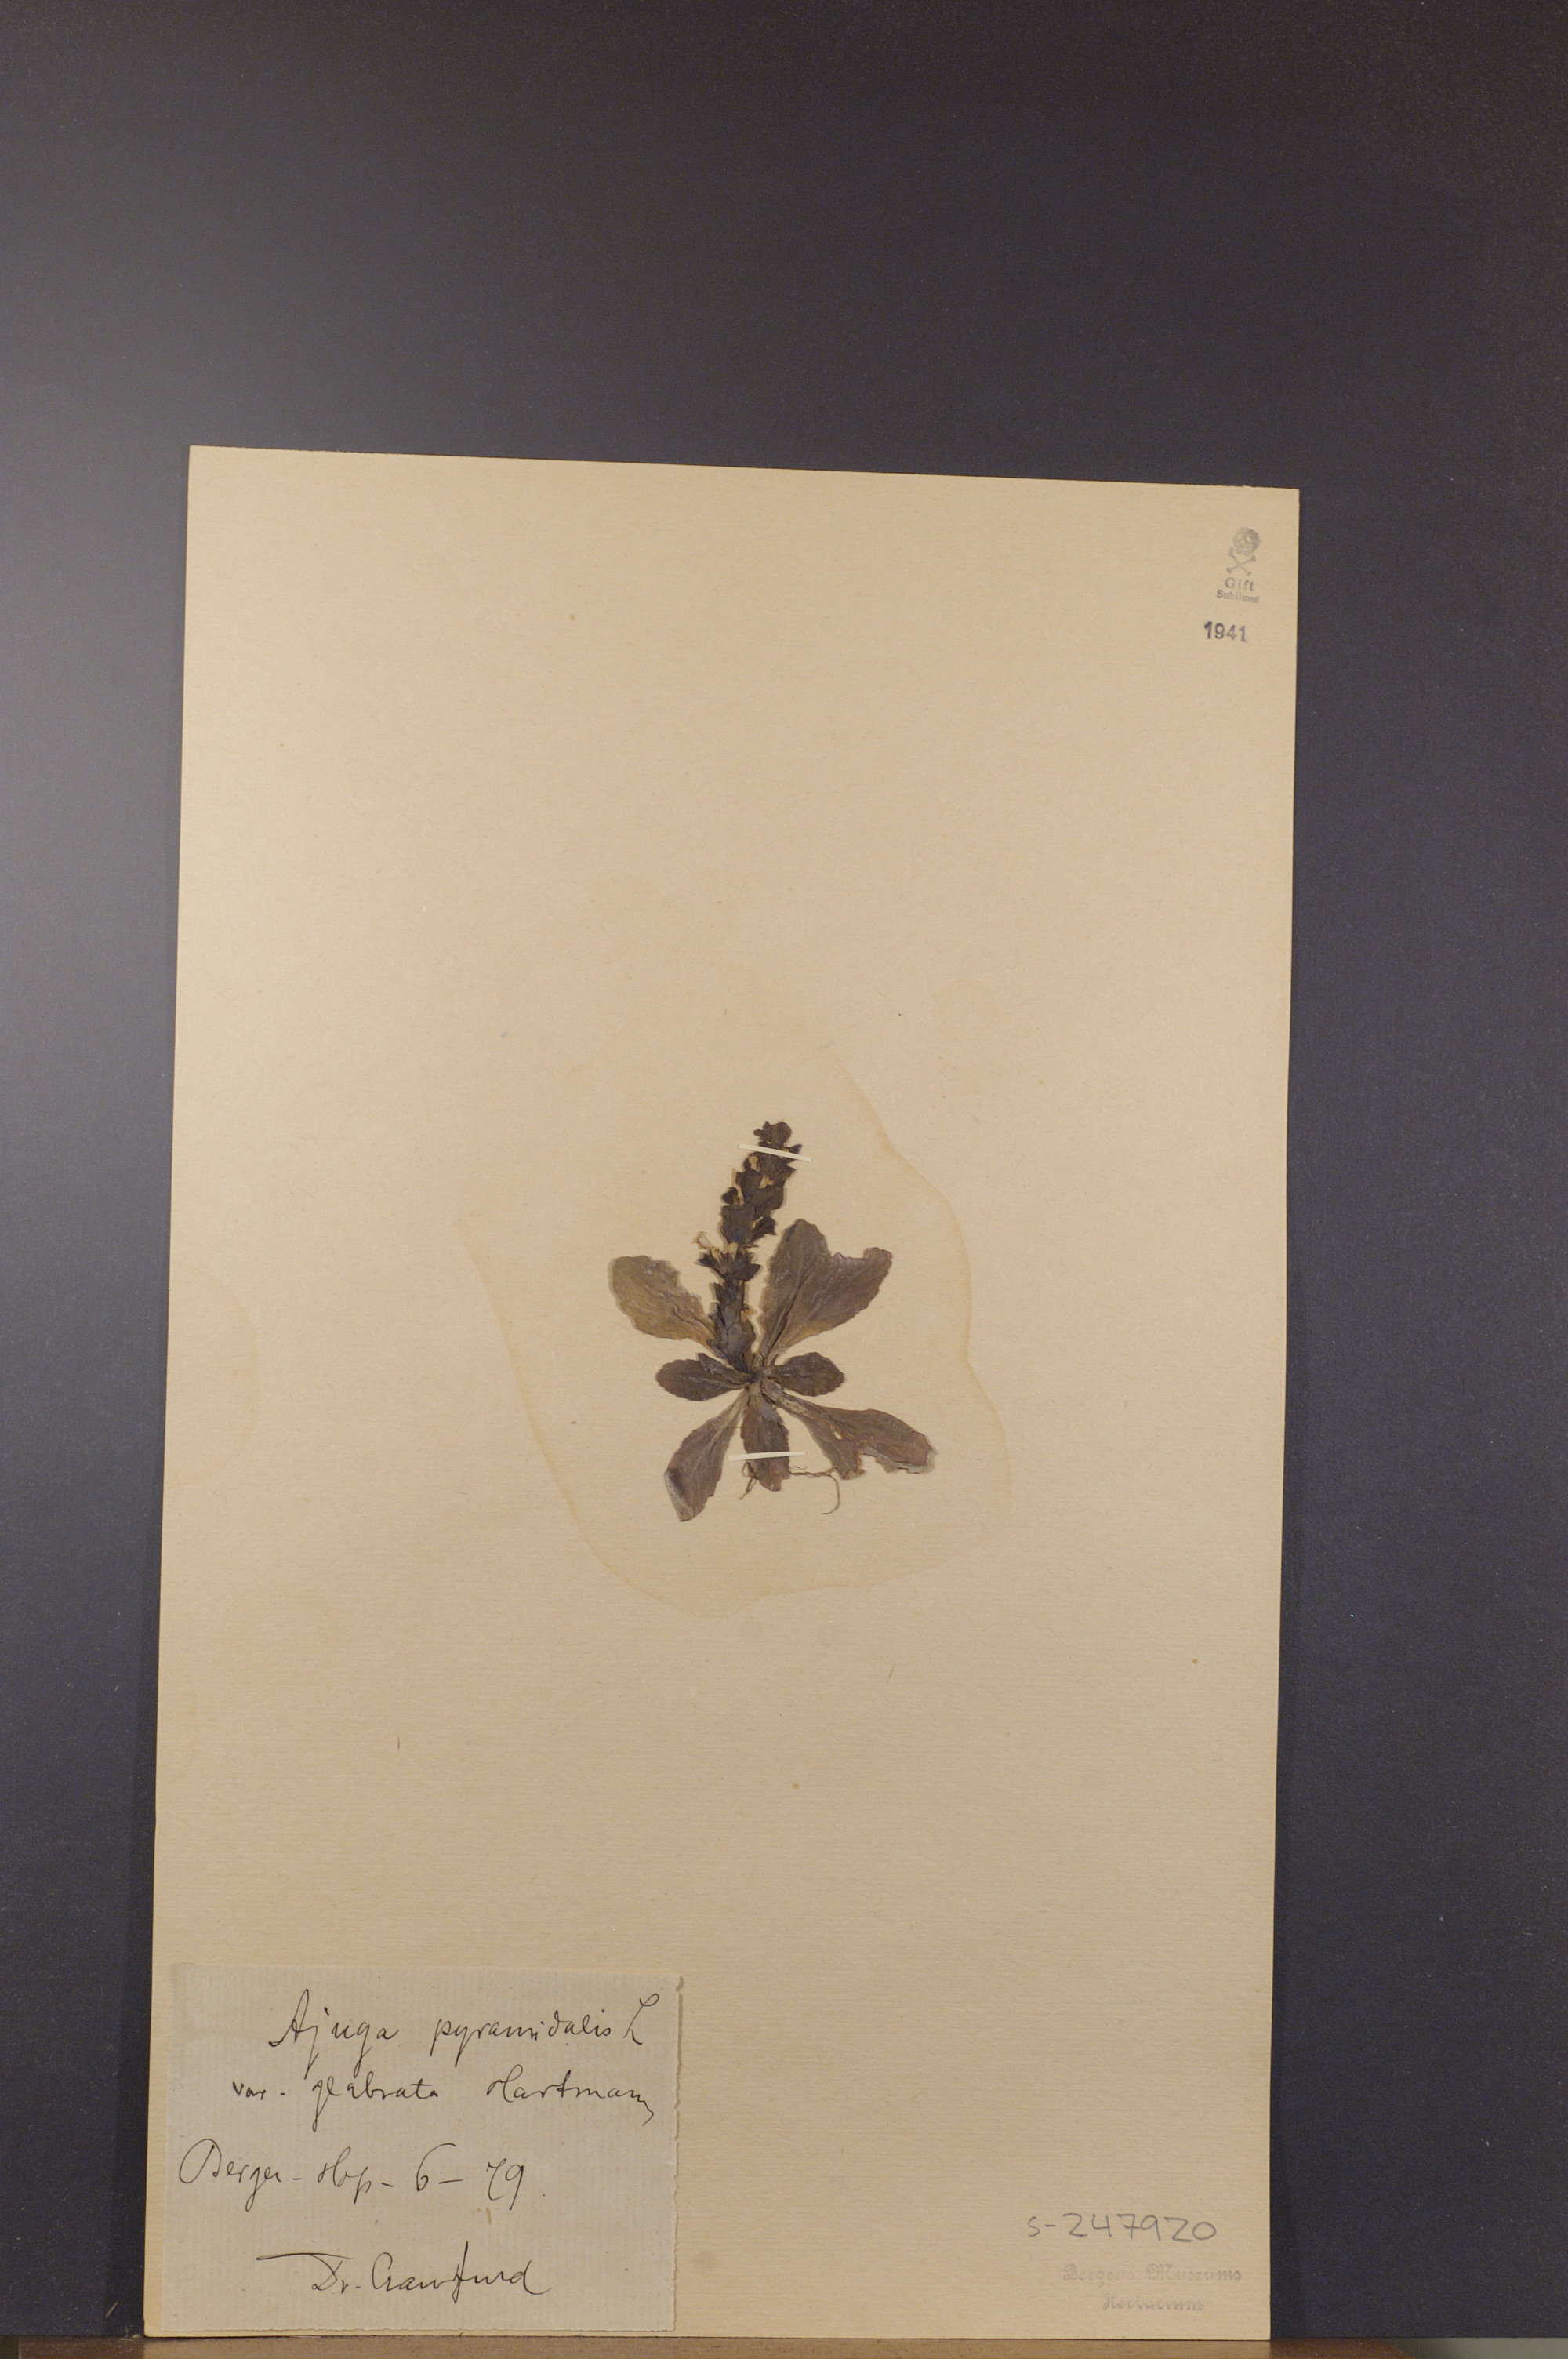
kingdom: Plantae
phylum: Tracheophyta
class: Magnoliopsida
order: Lamiales
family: Lamiaceae
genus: Ajuga
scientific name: Ajuga pyramidalis
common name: Pyramid bugle
